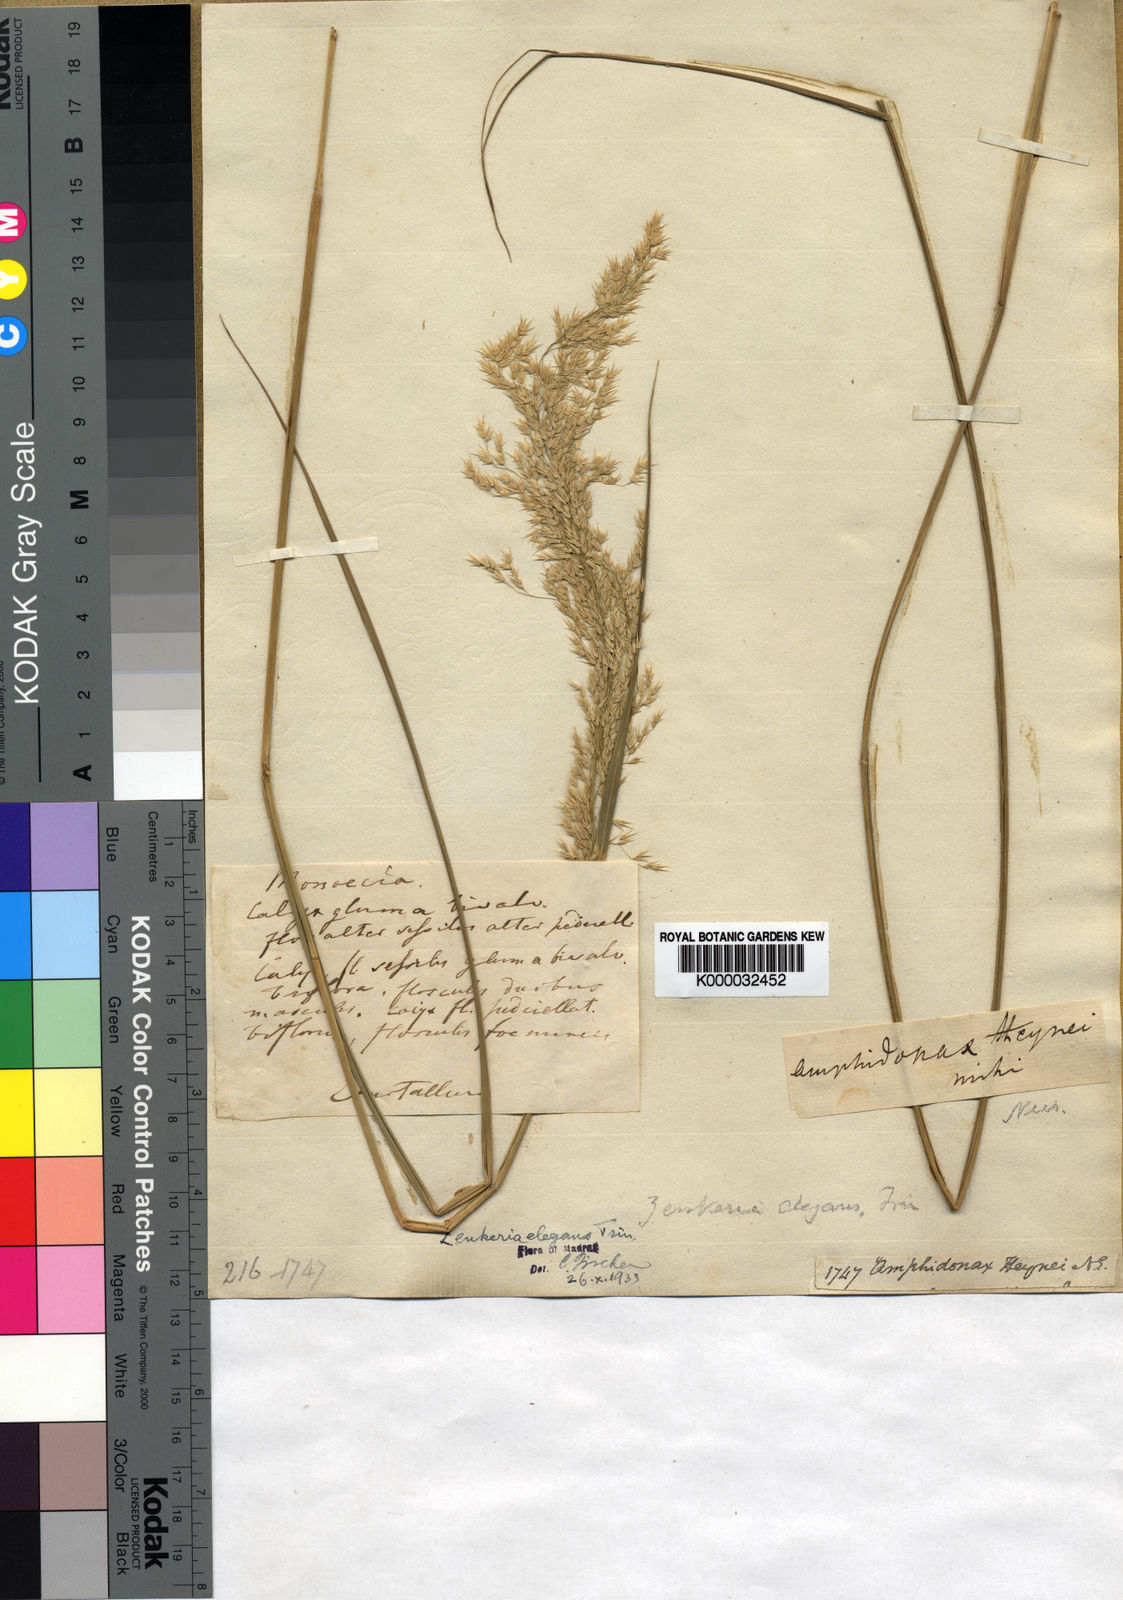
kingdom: Plantae
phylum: Tracheophyta
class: Liliopsida
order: Poales
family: Poaceae
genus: Zenkeria
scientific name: Zenkeria elegans
